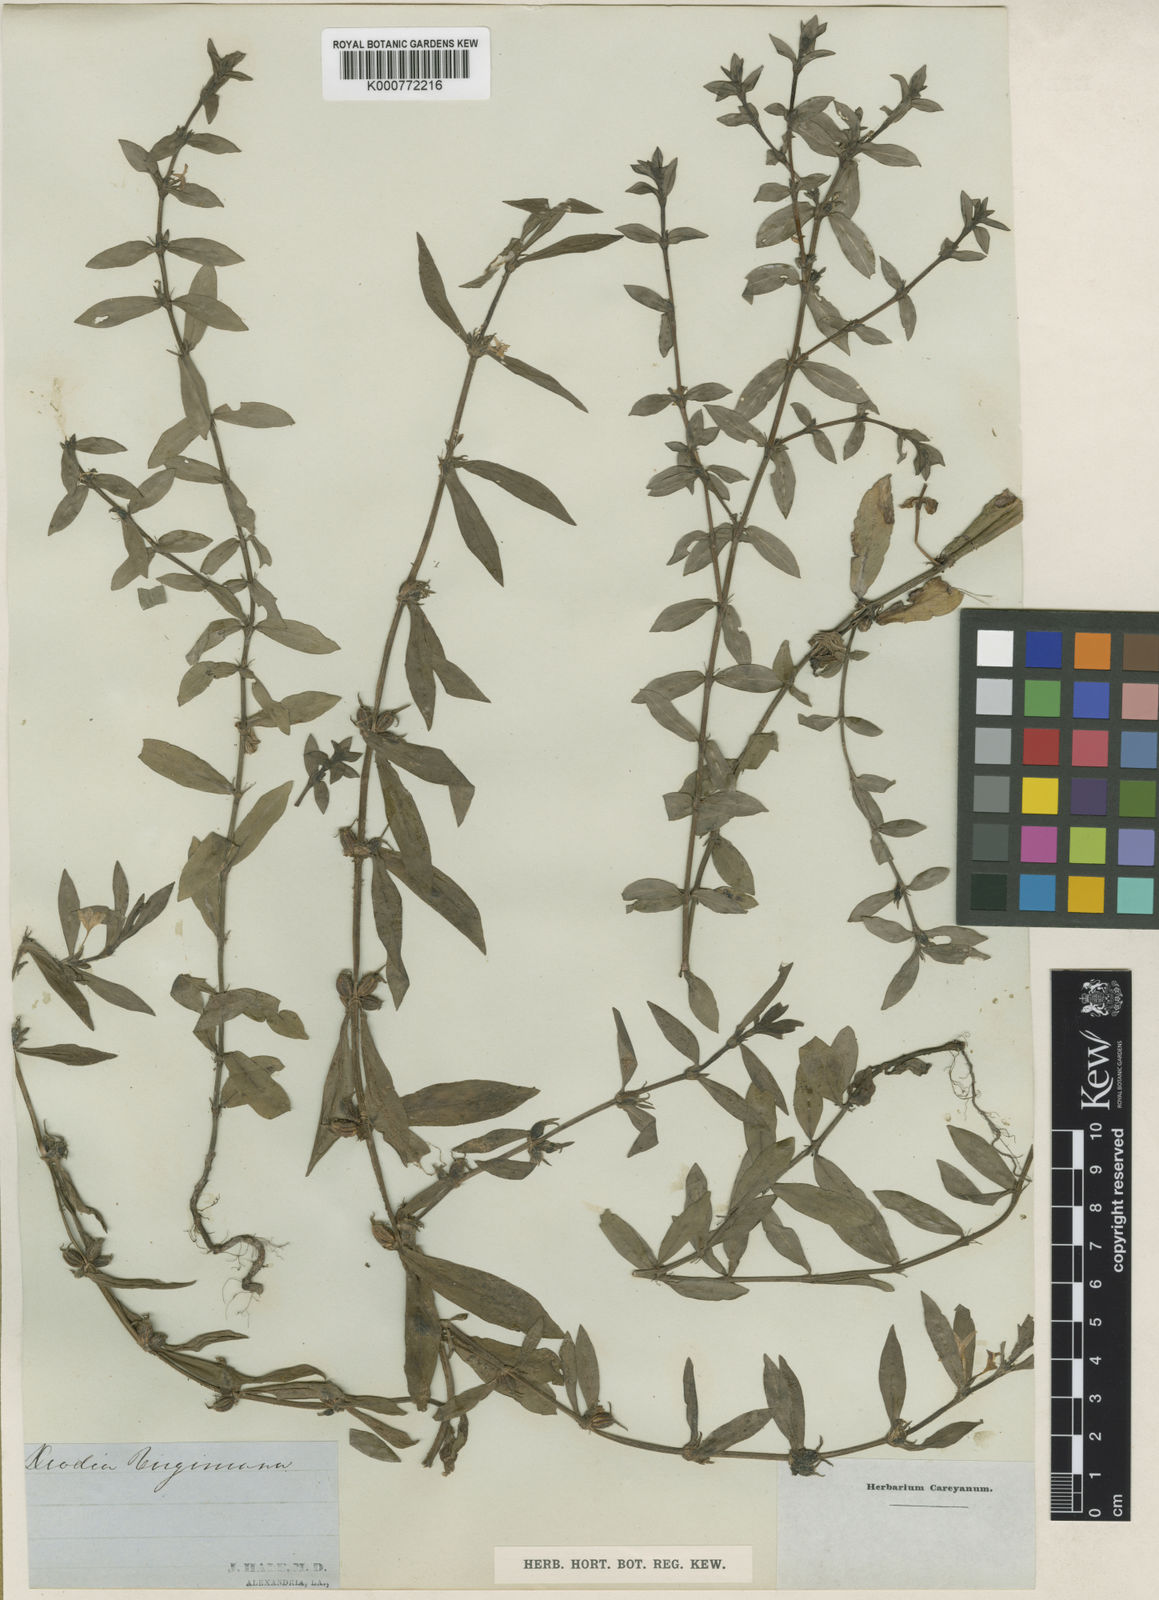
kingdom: Plantae
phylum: Tracheophyta
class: Magnoliopsida
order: Gentianales
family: Rubiaceae
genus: Diodia
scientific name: Diodia virginiana
